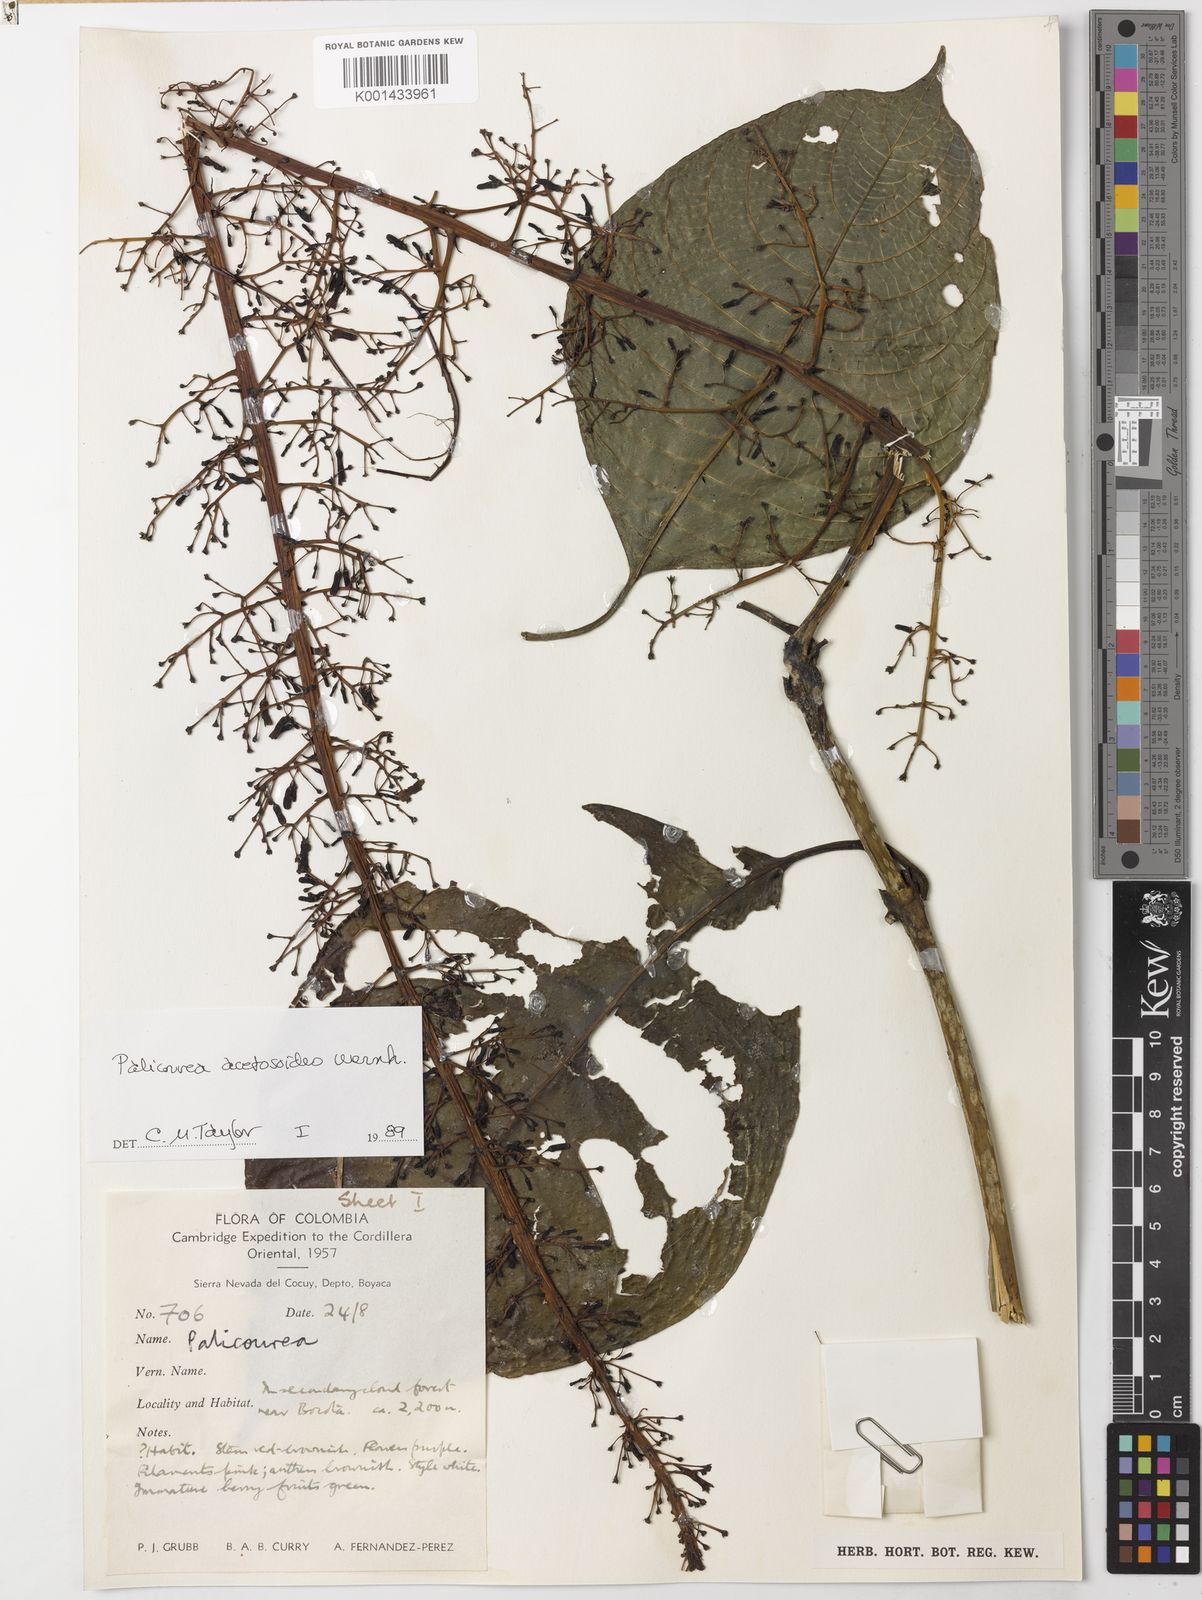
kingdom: Plantae
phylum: Tracheophyta
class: Magnoliopsida
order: Gentianales
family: Rubiaceae
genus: Palicourea
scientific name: Palicourea acetosoides
